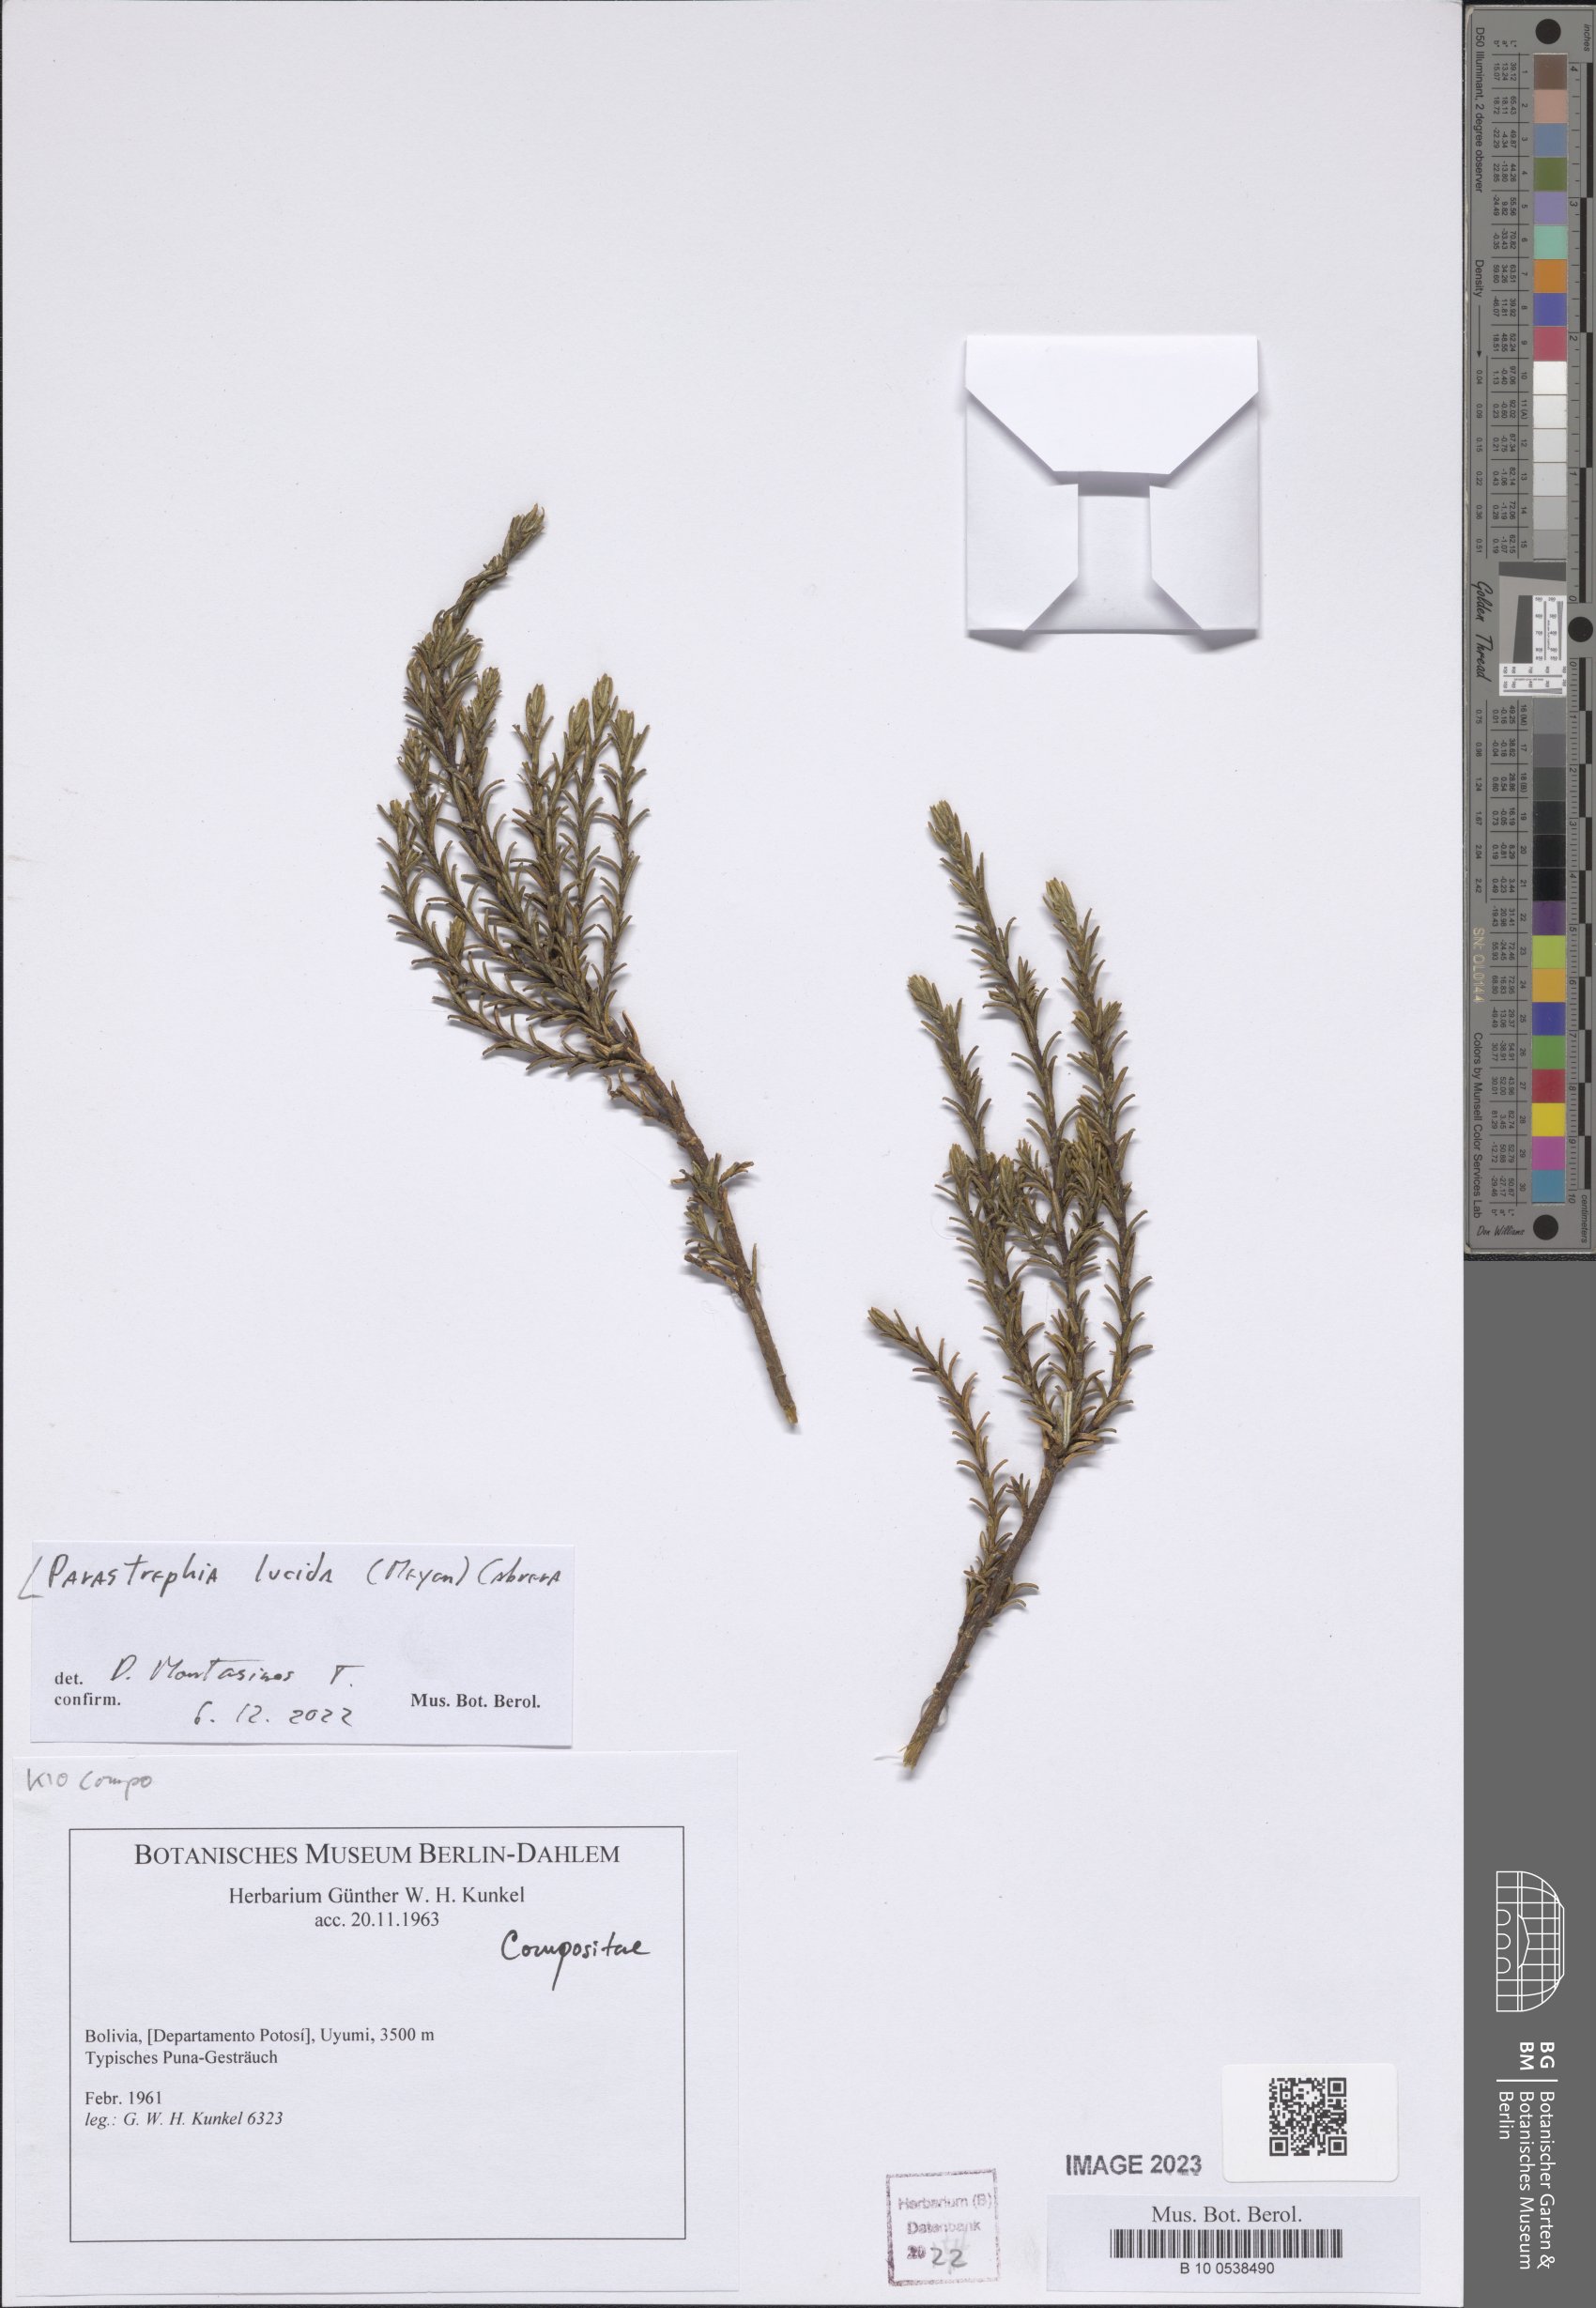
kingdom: Plantae
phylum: Tracheophyta
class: Magnoliopsida
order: Asterales
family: Asteraceae
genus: Parastrephia
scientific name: Parastrephia lucida
